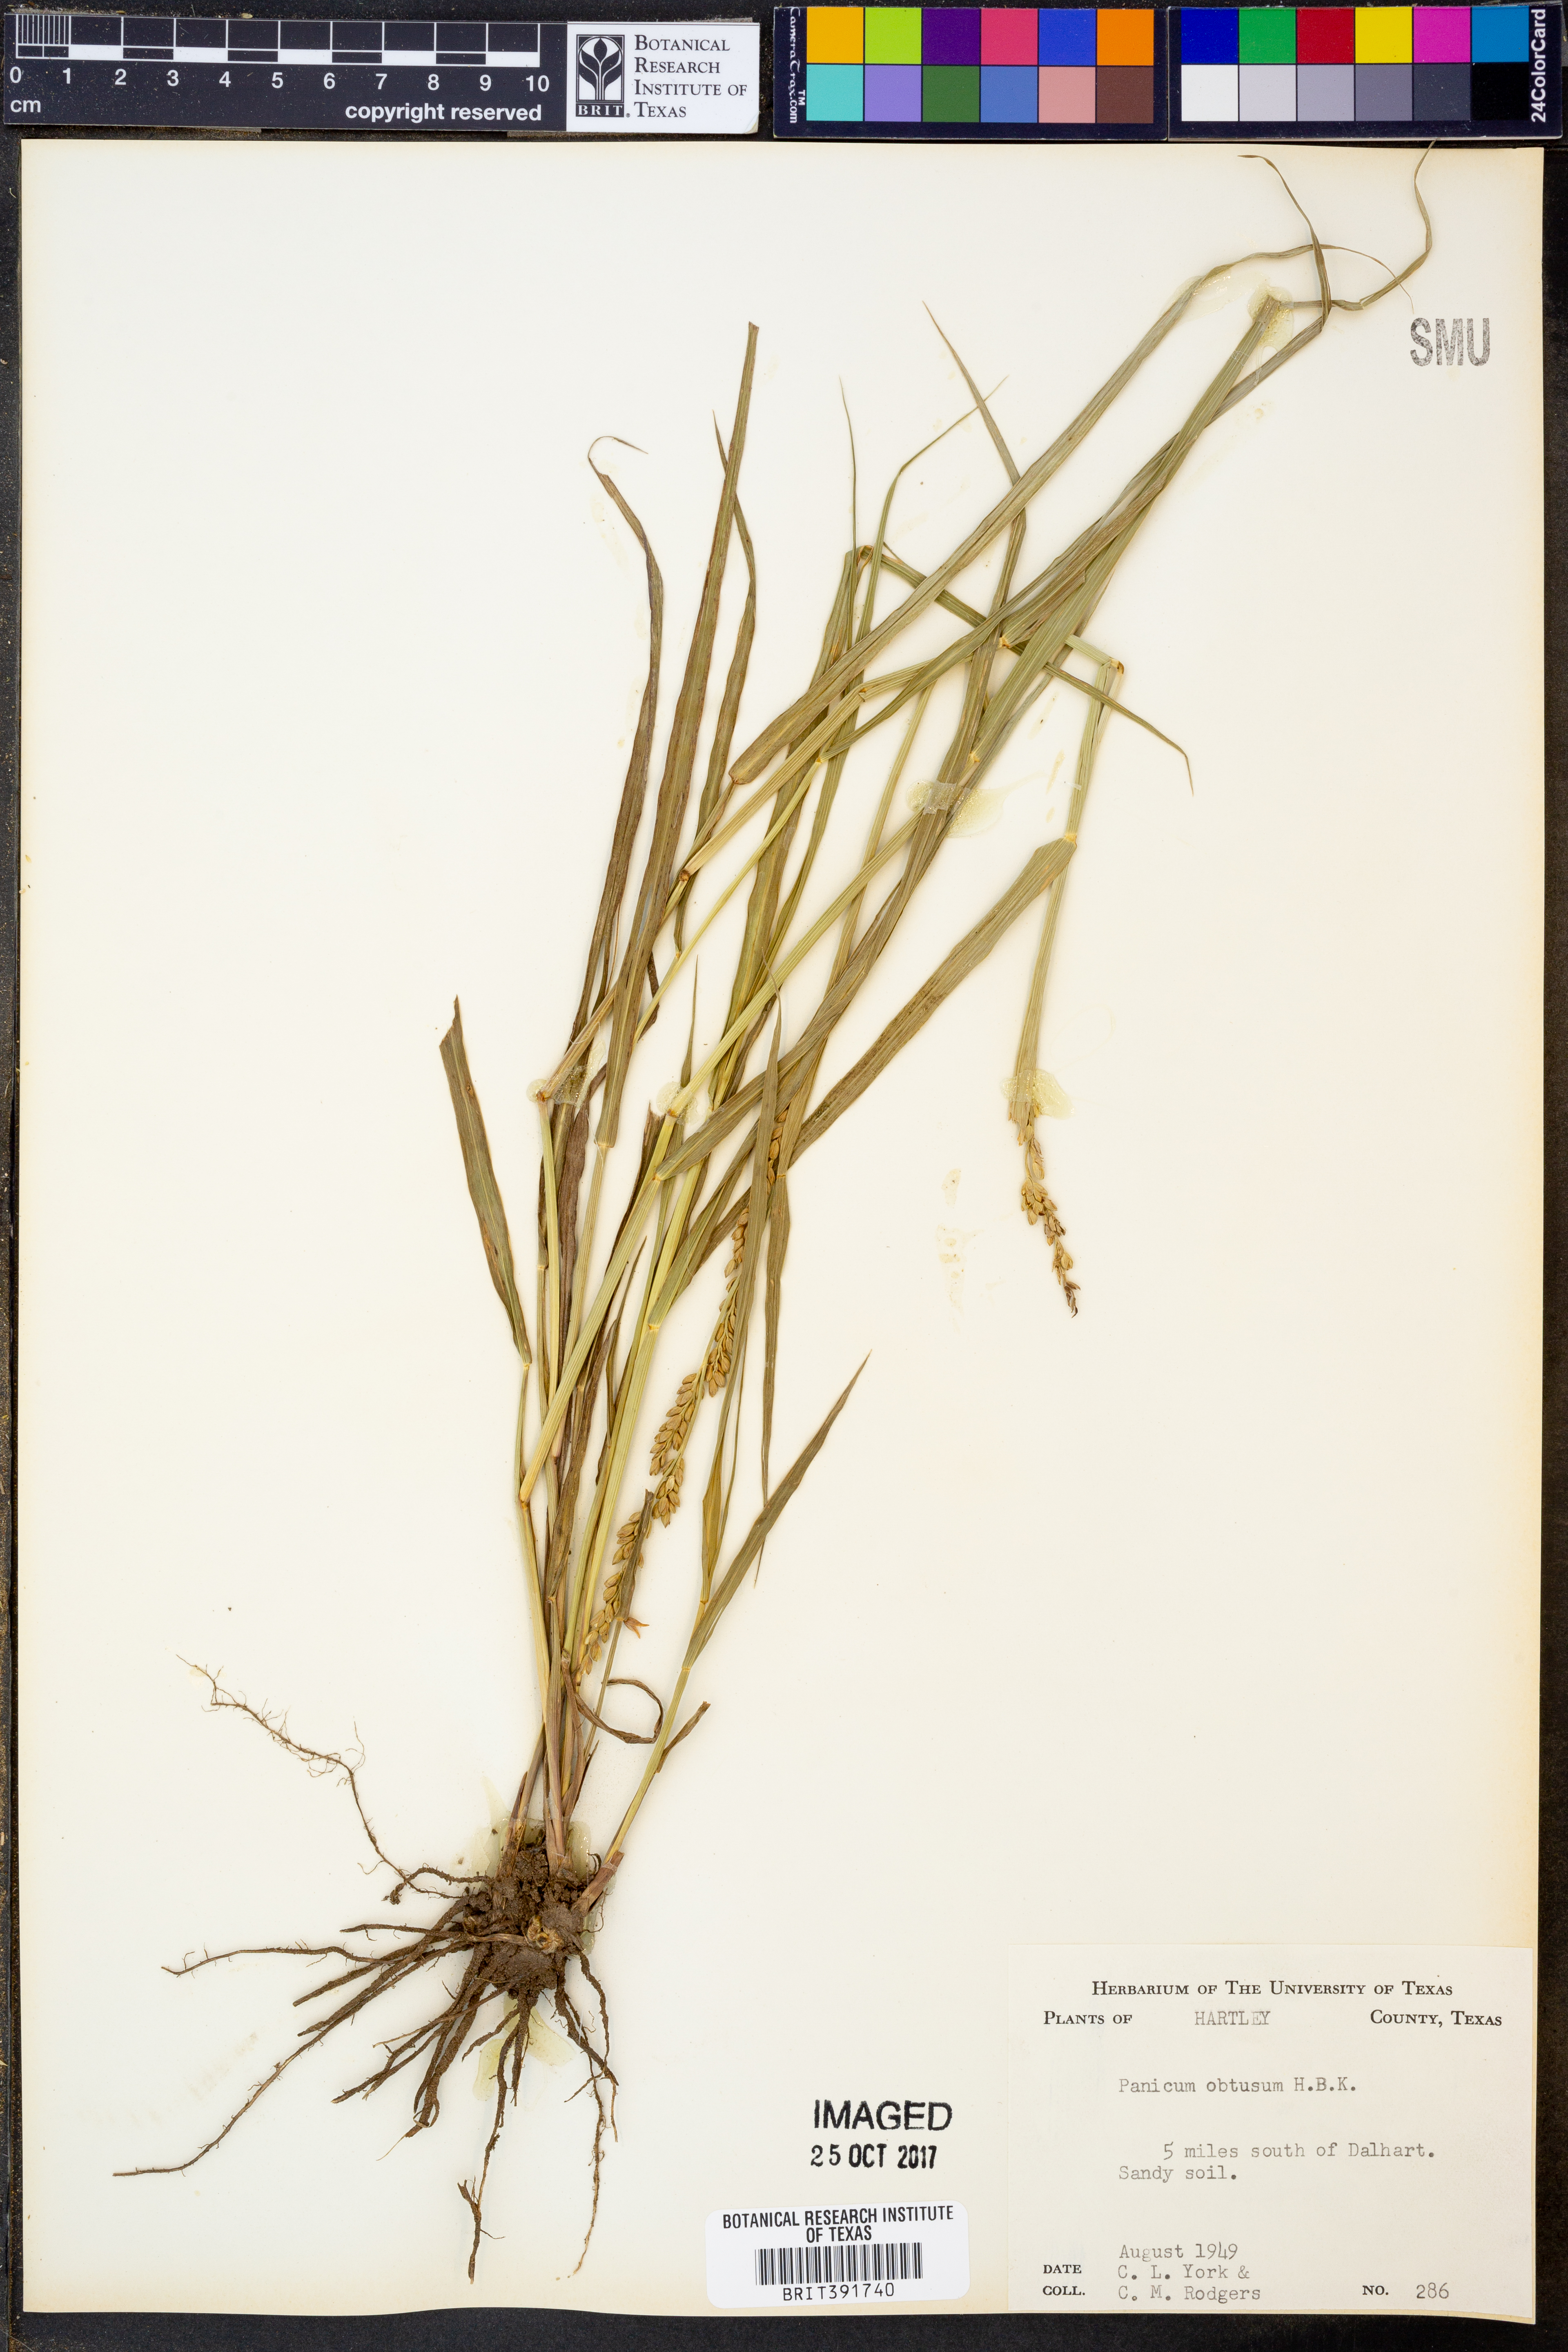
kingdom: Plantae
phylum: Tracheophyta
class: Liliopsida
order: Poales
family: Poaceae
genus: Hopia
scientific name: Hopia obtusa
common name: Vine-mesquite
